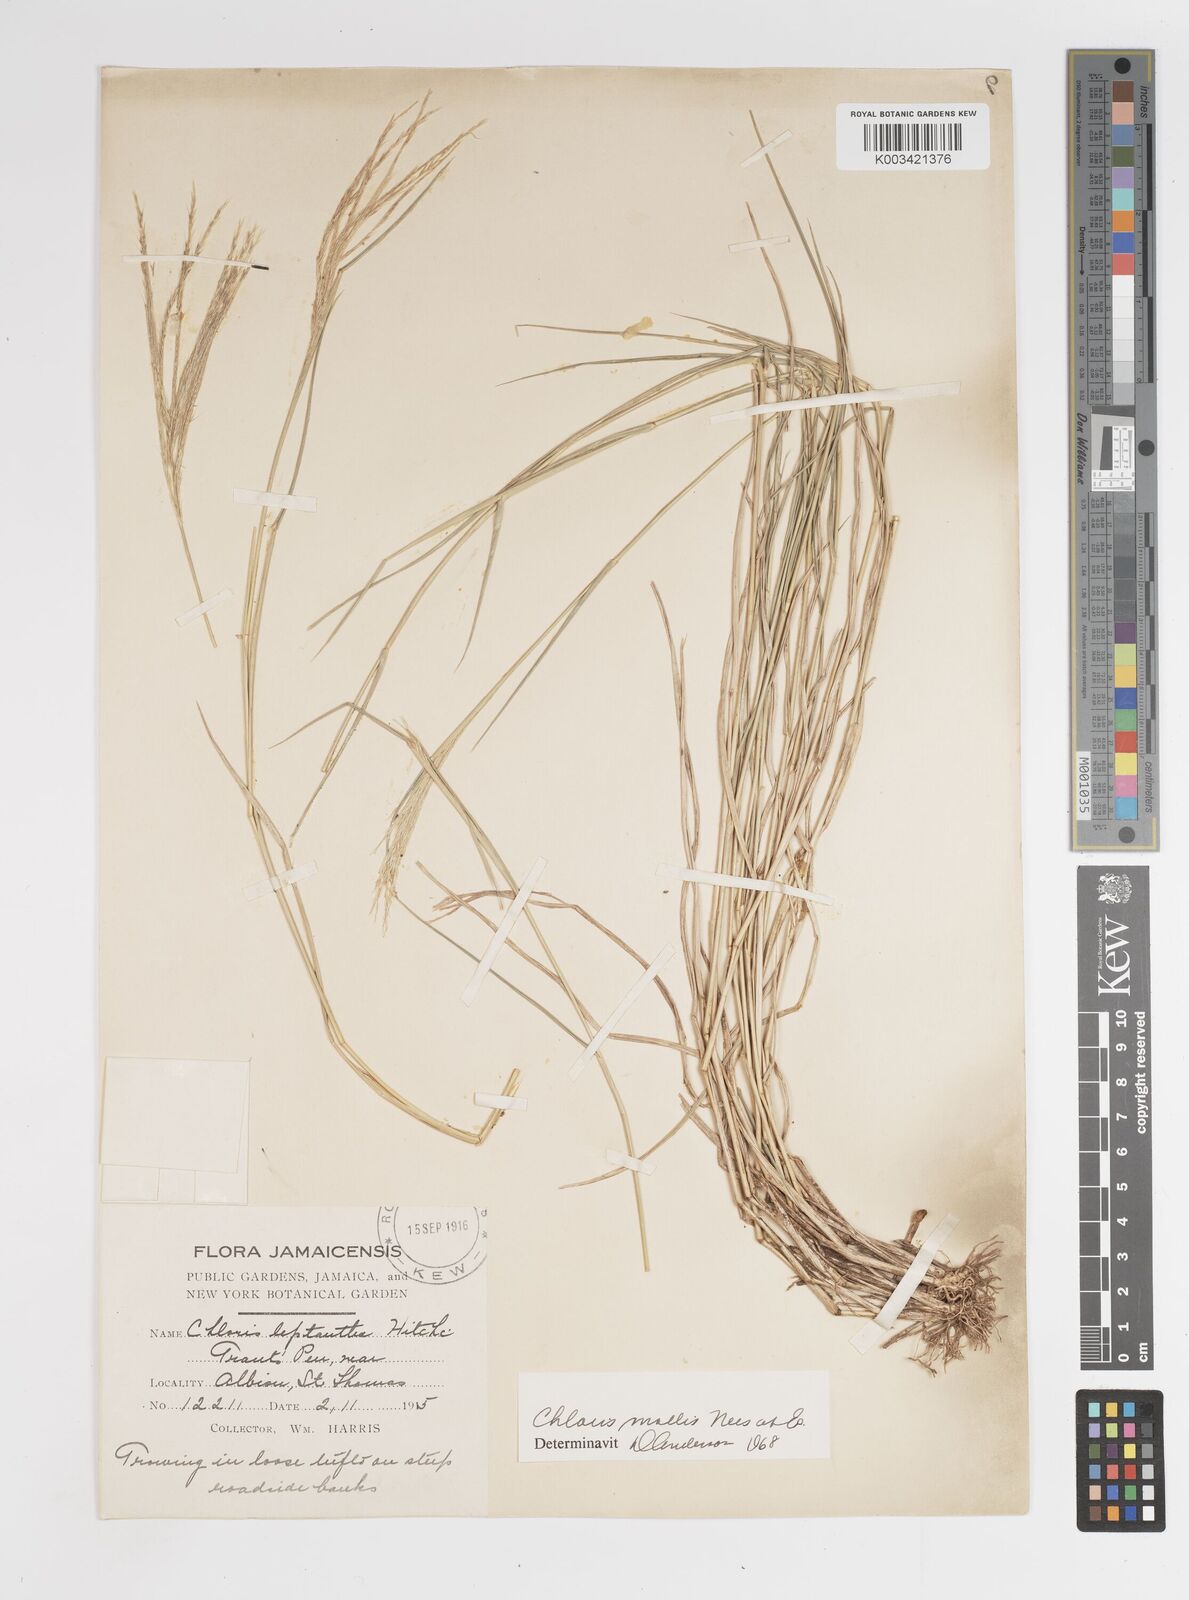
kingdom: Plantae
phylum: Tracheophyta
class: Liliopsida
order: Poales
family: Poaceae
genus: Leptochloa
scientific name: Leptochloa anisopoda
